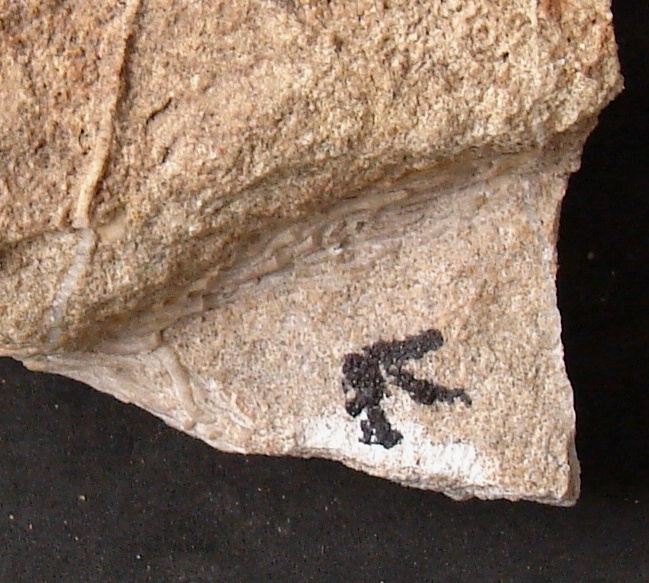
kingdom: Animalia
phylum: Annelida
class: Polychaeta
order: Sabellida
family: Serpulidae
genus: Filograna
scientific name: Filograna
